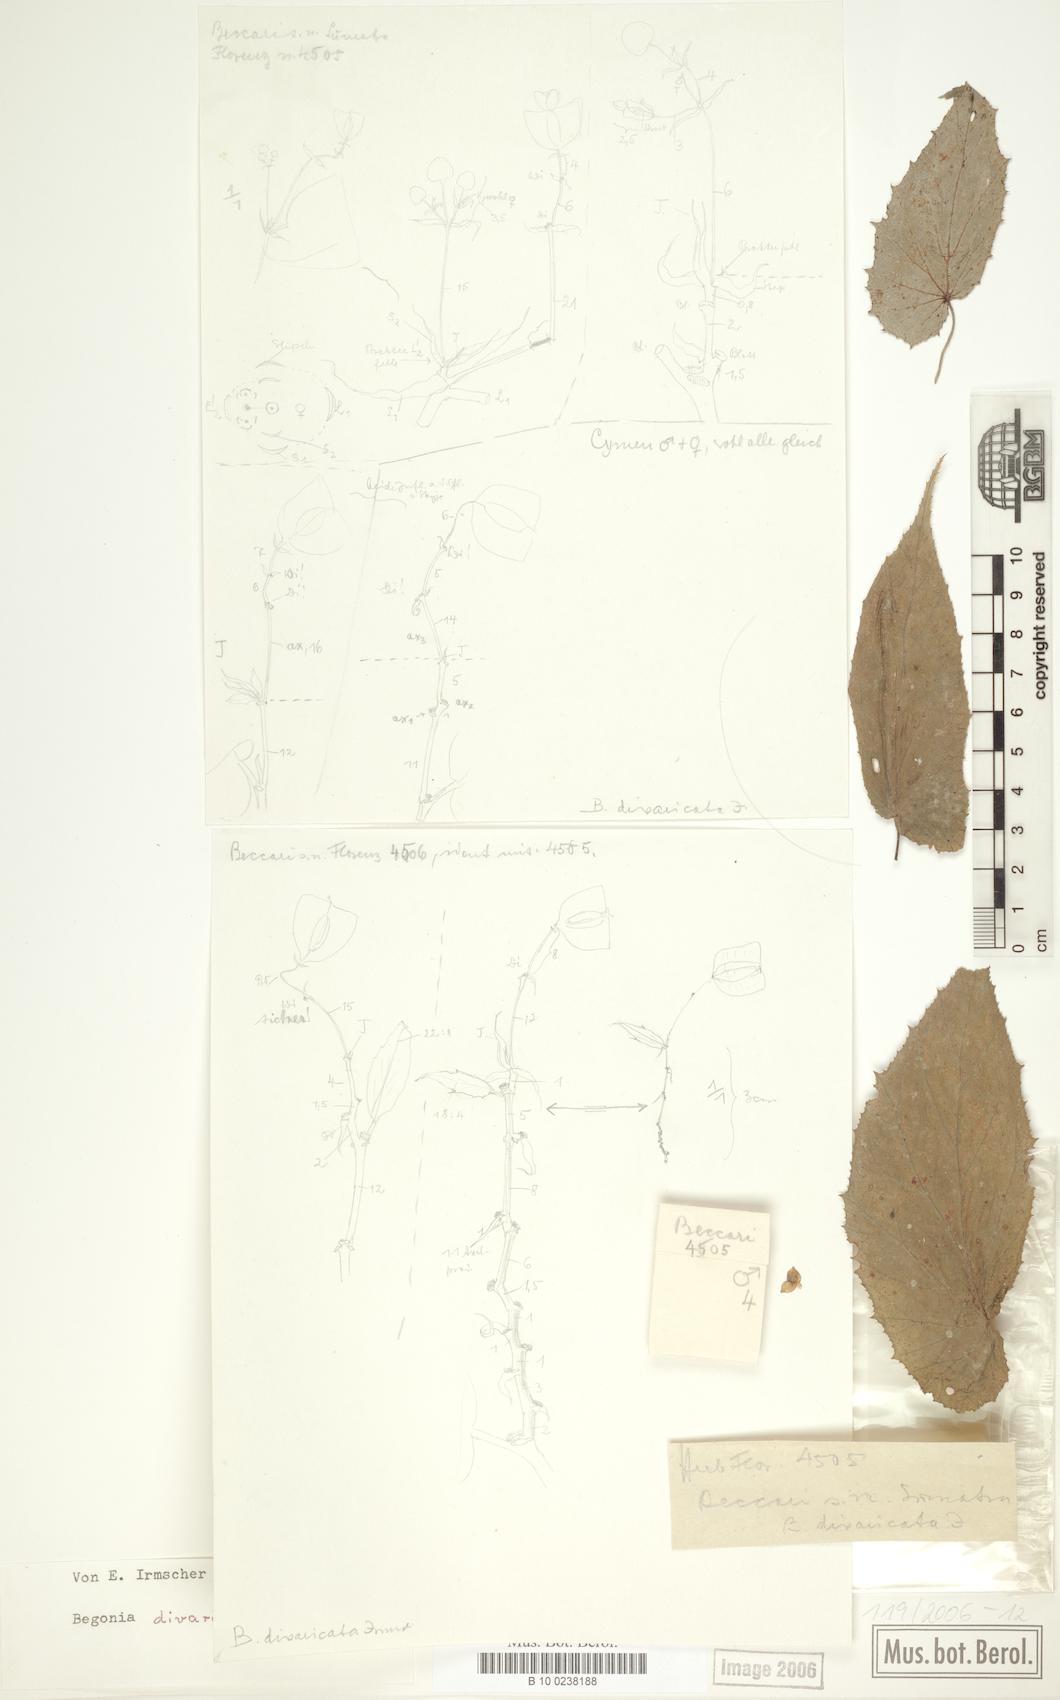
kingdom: Plantae
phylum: Tracheophyta
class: Magnoliopsida
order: Cucurbitales
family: Begoniaceae
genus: Begonia
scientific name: Begonia divaricata
